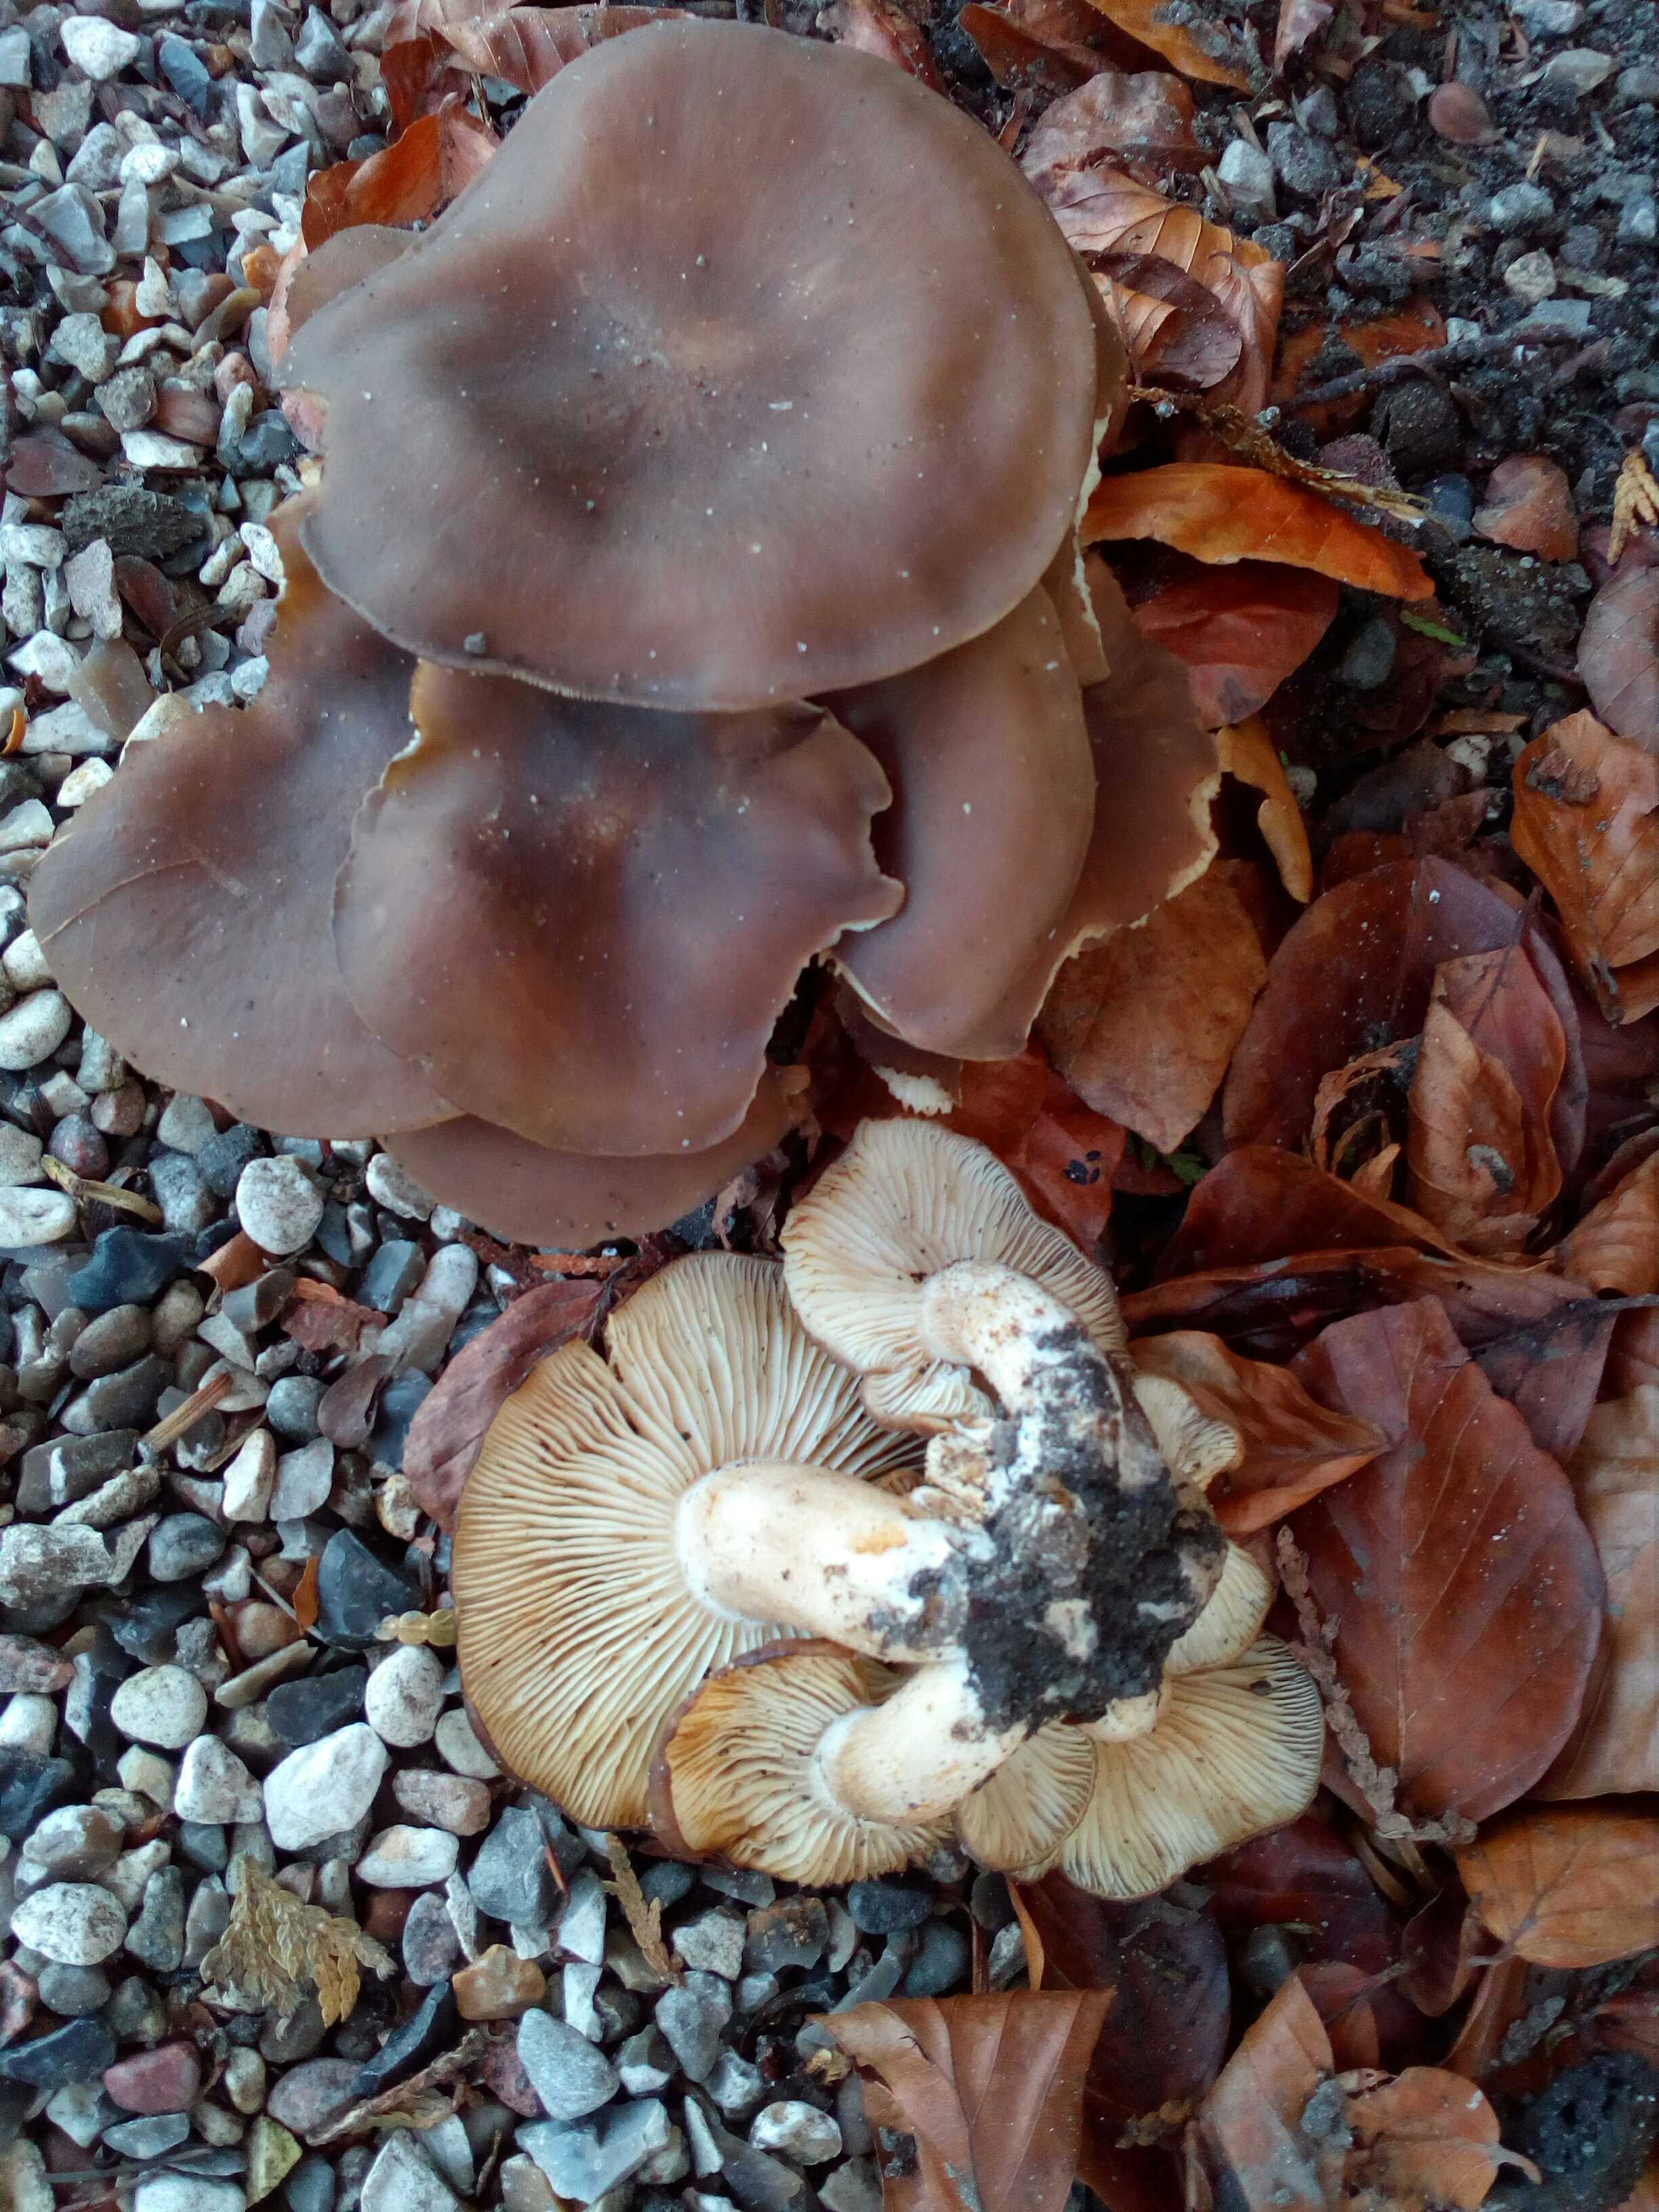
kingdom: Fungi
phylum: Basidiomycota
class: Agaricomycetes
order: Agaricales
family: Lyophyllaceae
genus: Lyophyllum
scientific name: Lyophyllum decastes
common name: Clustered domecap
